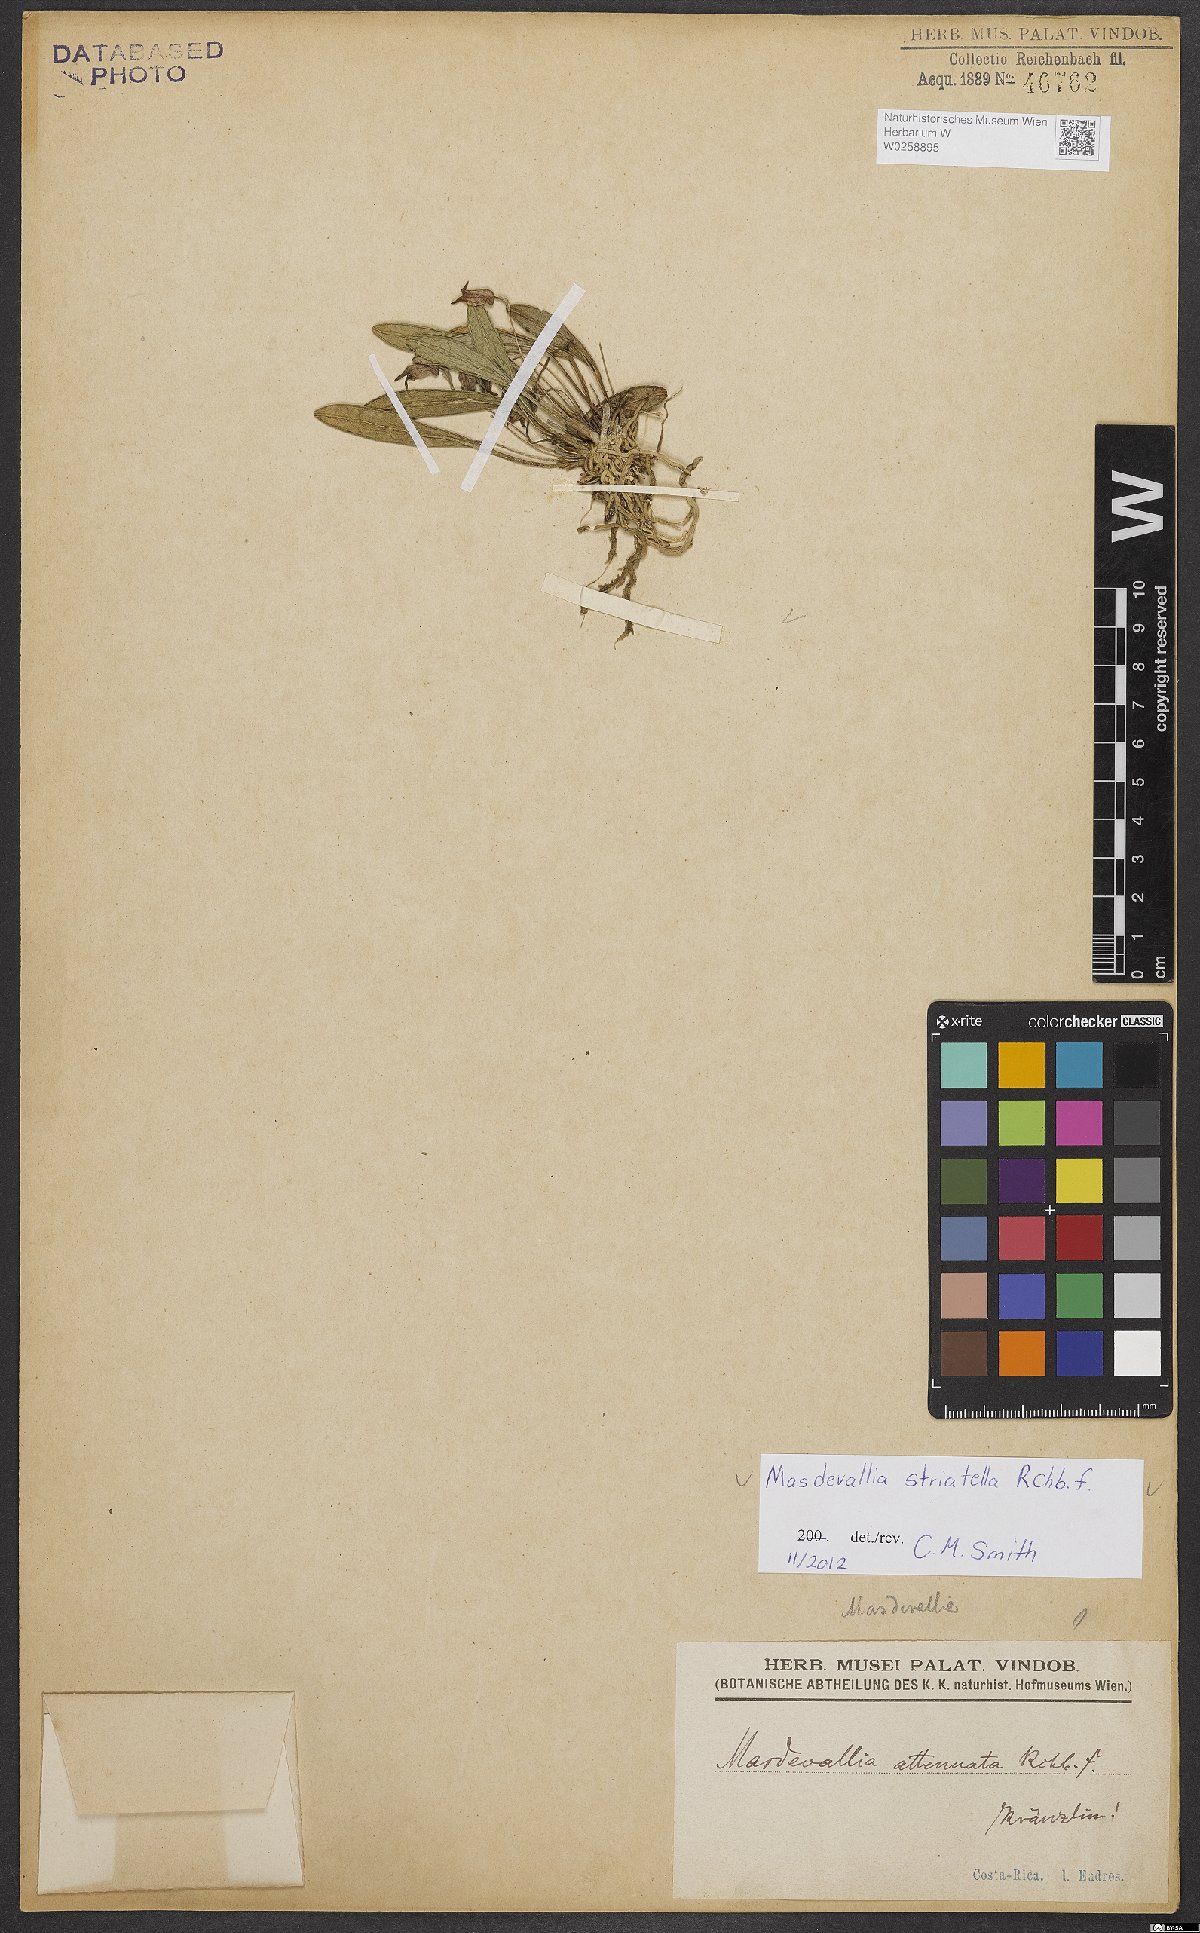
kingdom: Plantae
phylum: Tracheophyta
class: Liliopsida
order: Asparagales
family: Orchidaceae
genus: Masdevallia
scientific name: Masdevallia striatella
